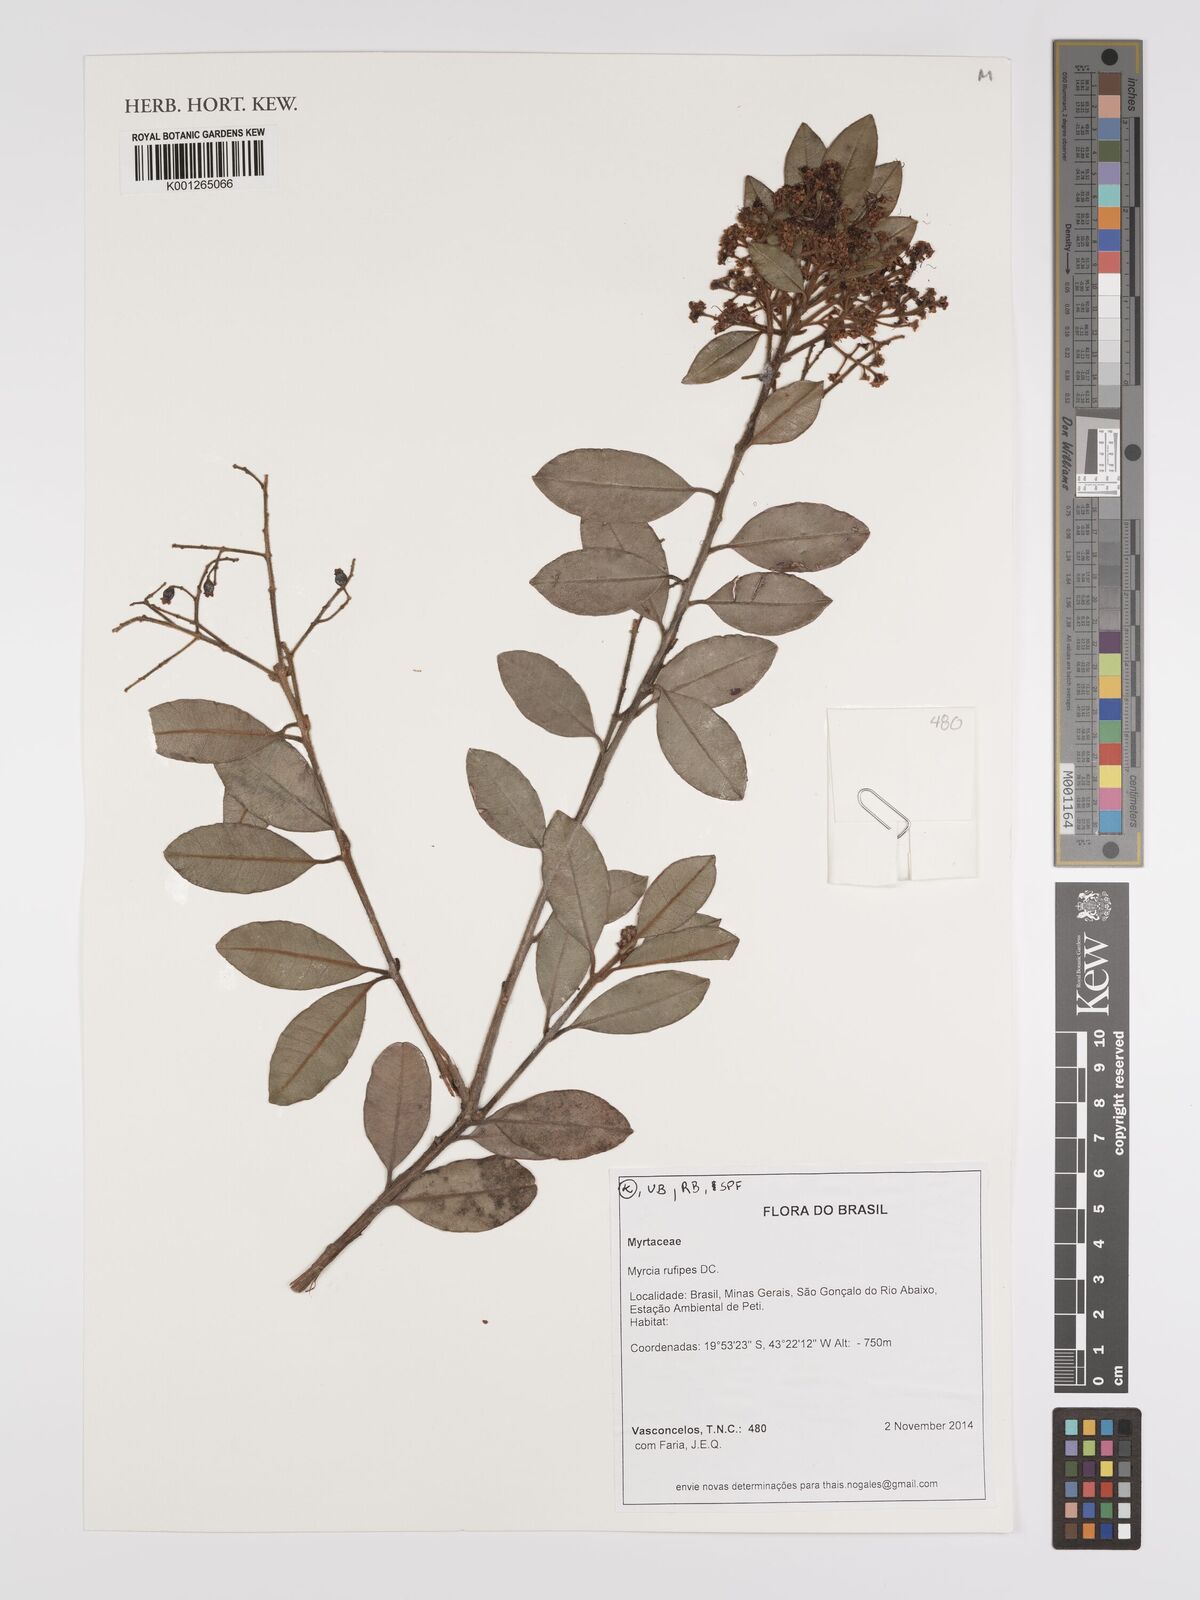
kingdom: Plantae
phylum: Tracheophyta
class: Magnoliopsida
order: Myrtales
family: Myrtaceae
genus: Myrcia
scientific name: Myrcia rufipes
